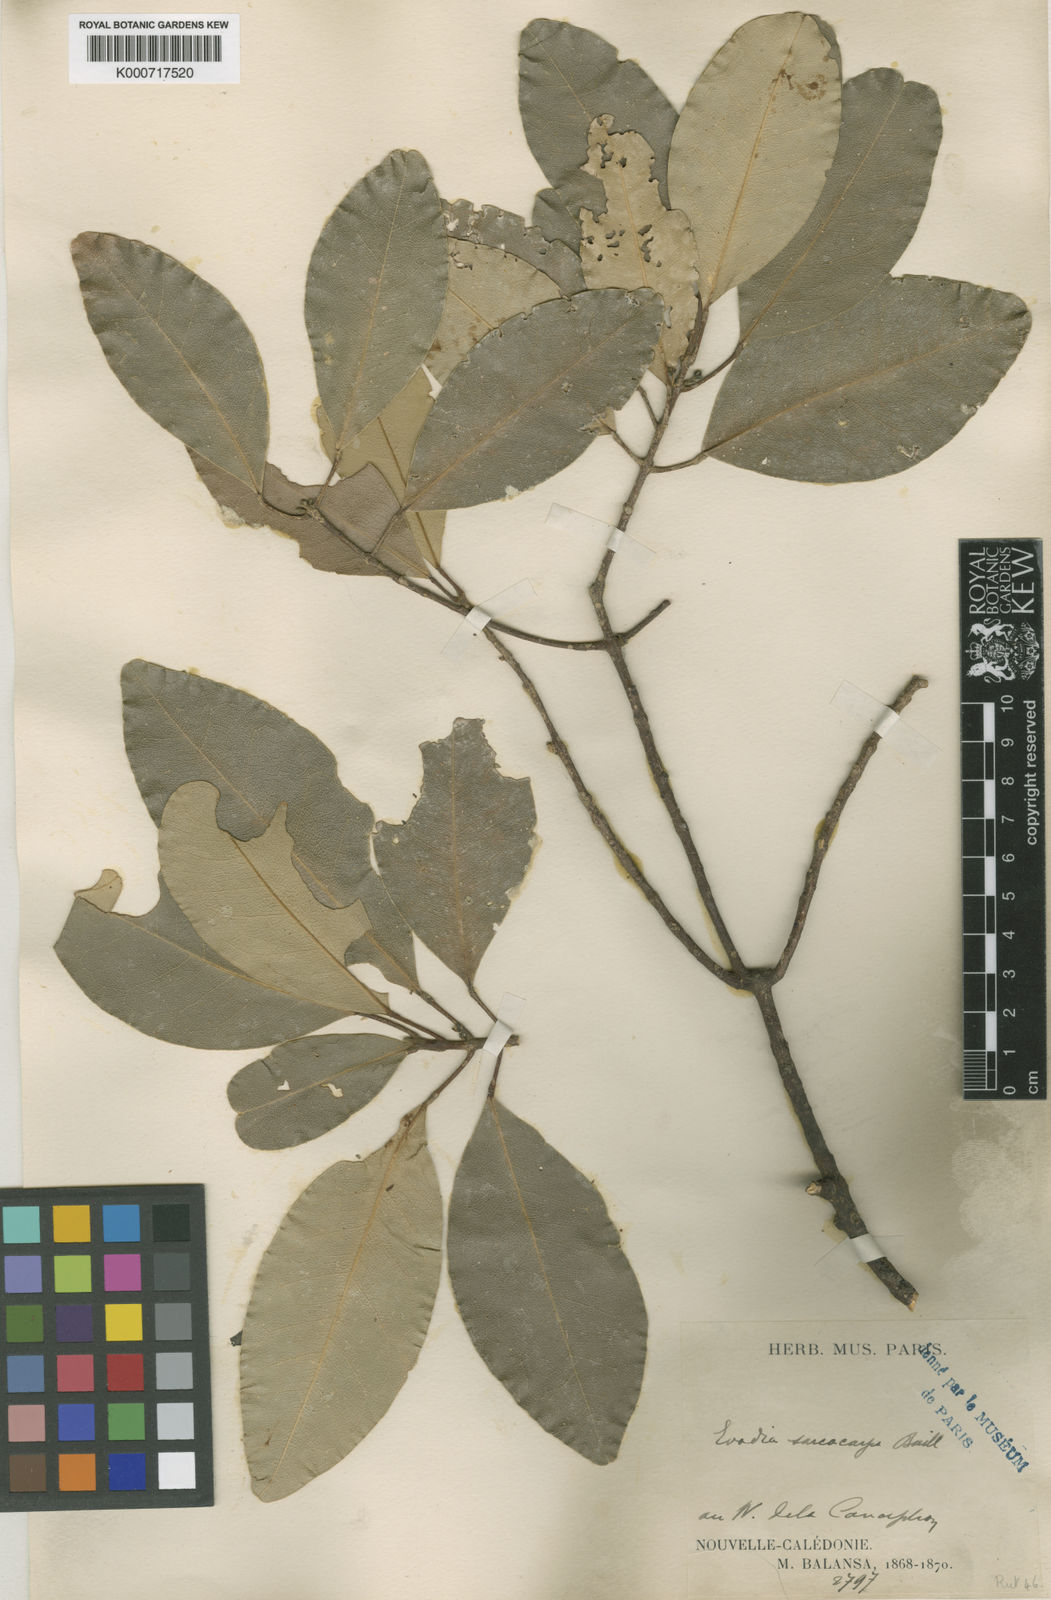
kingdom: Plantae
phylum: Tracheophyta
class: Magnoliopsida
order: Sapindales
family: Rutaceae
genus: Sarcomelicope
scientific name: Sarcomelicope sarcococca
